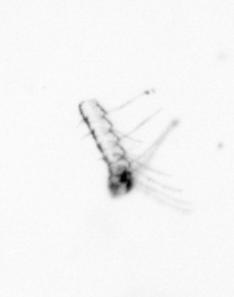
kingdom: Chromista
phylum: Ochrophyta
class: Bacillariophyceae
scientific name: Bacillariophyceae
